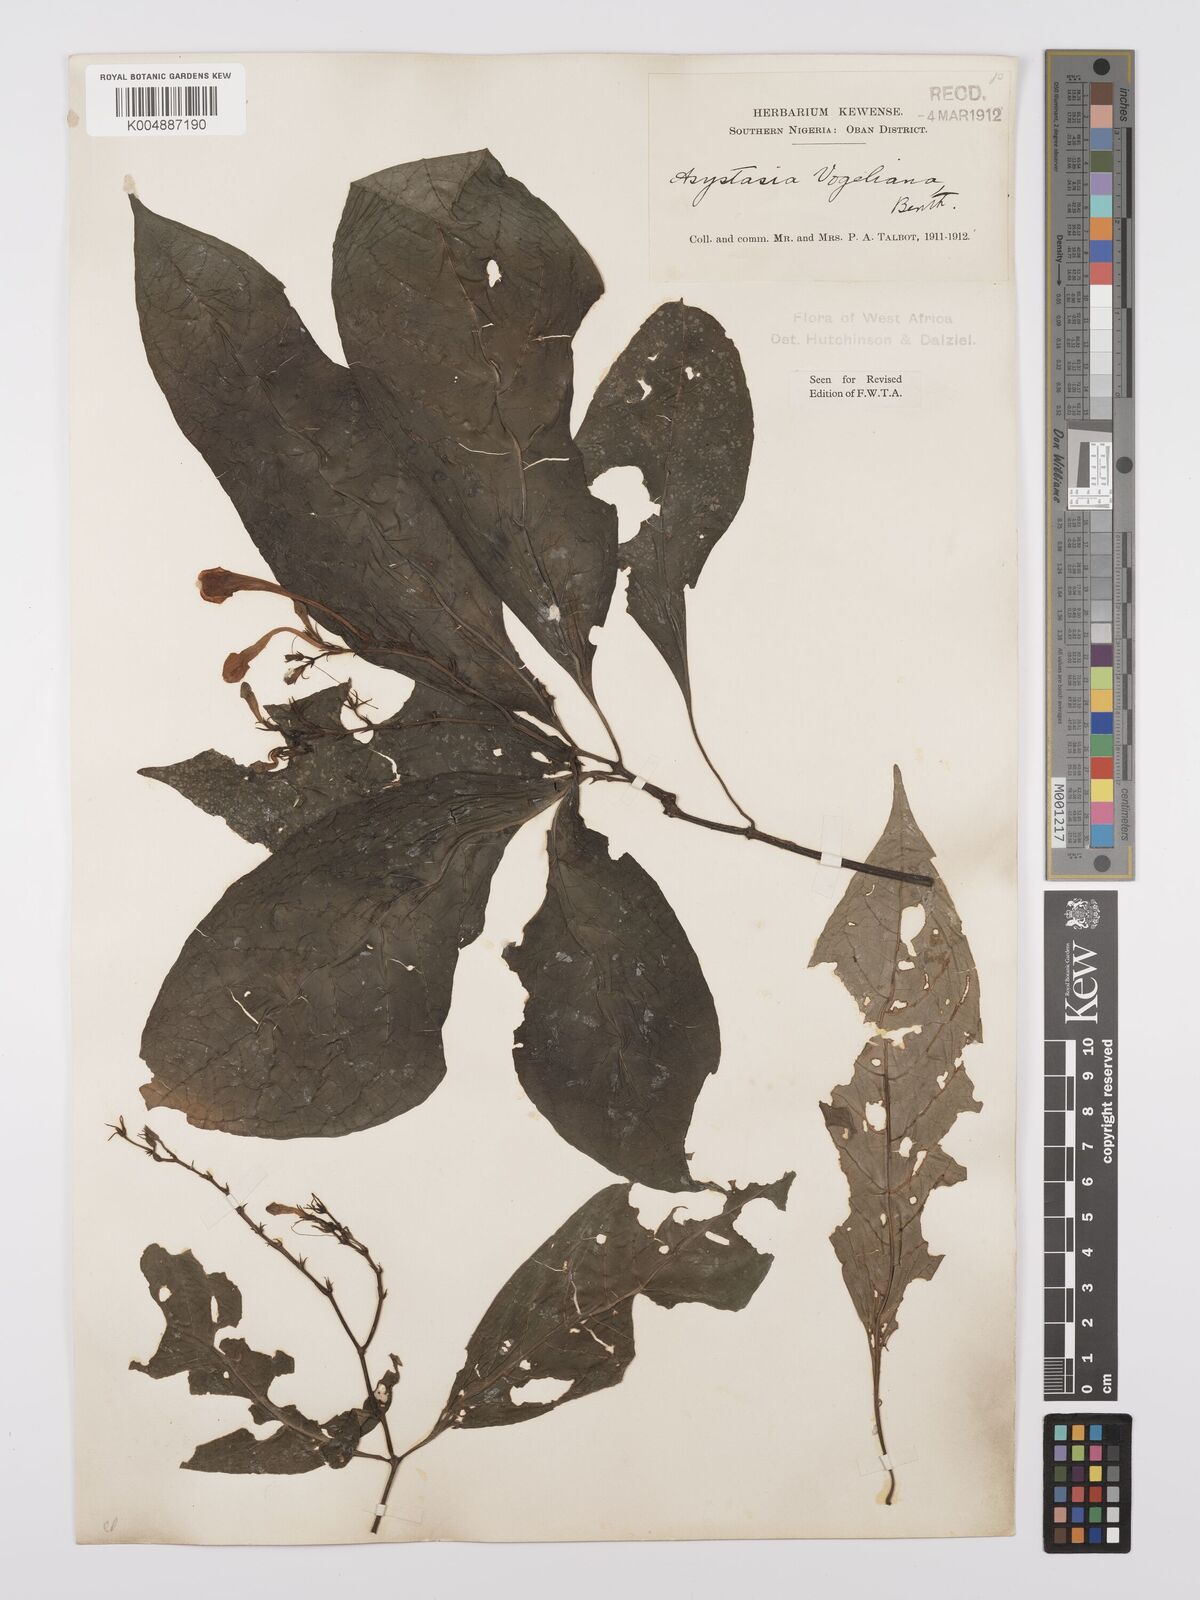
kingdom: Plantae
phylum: Tracheophyta
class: Magnoliopsida
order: Lamiales
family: Acanthaceae
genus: Asystasia
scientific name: Asystasia vogeliana
